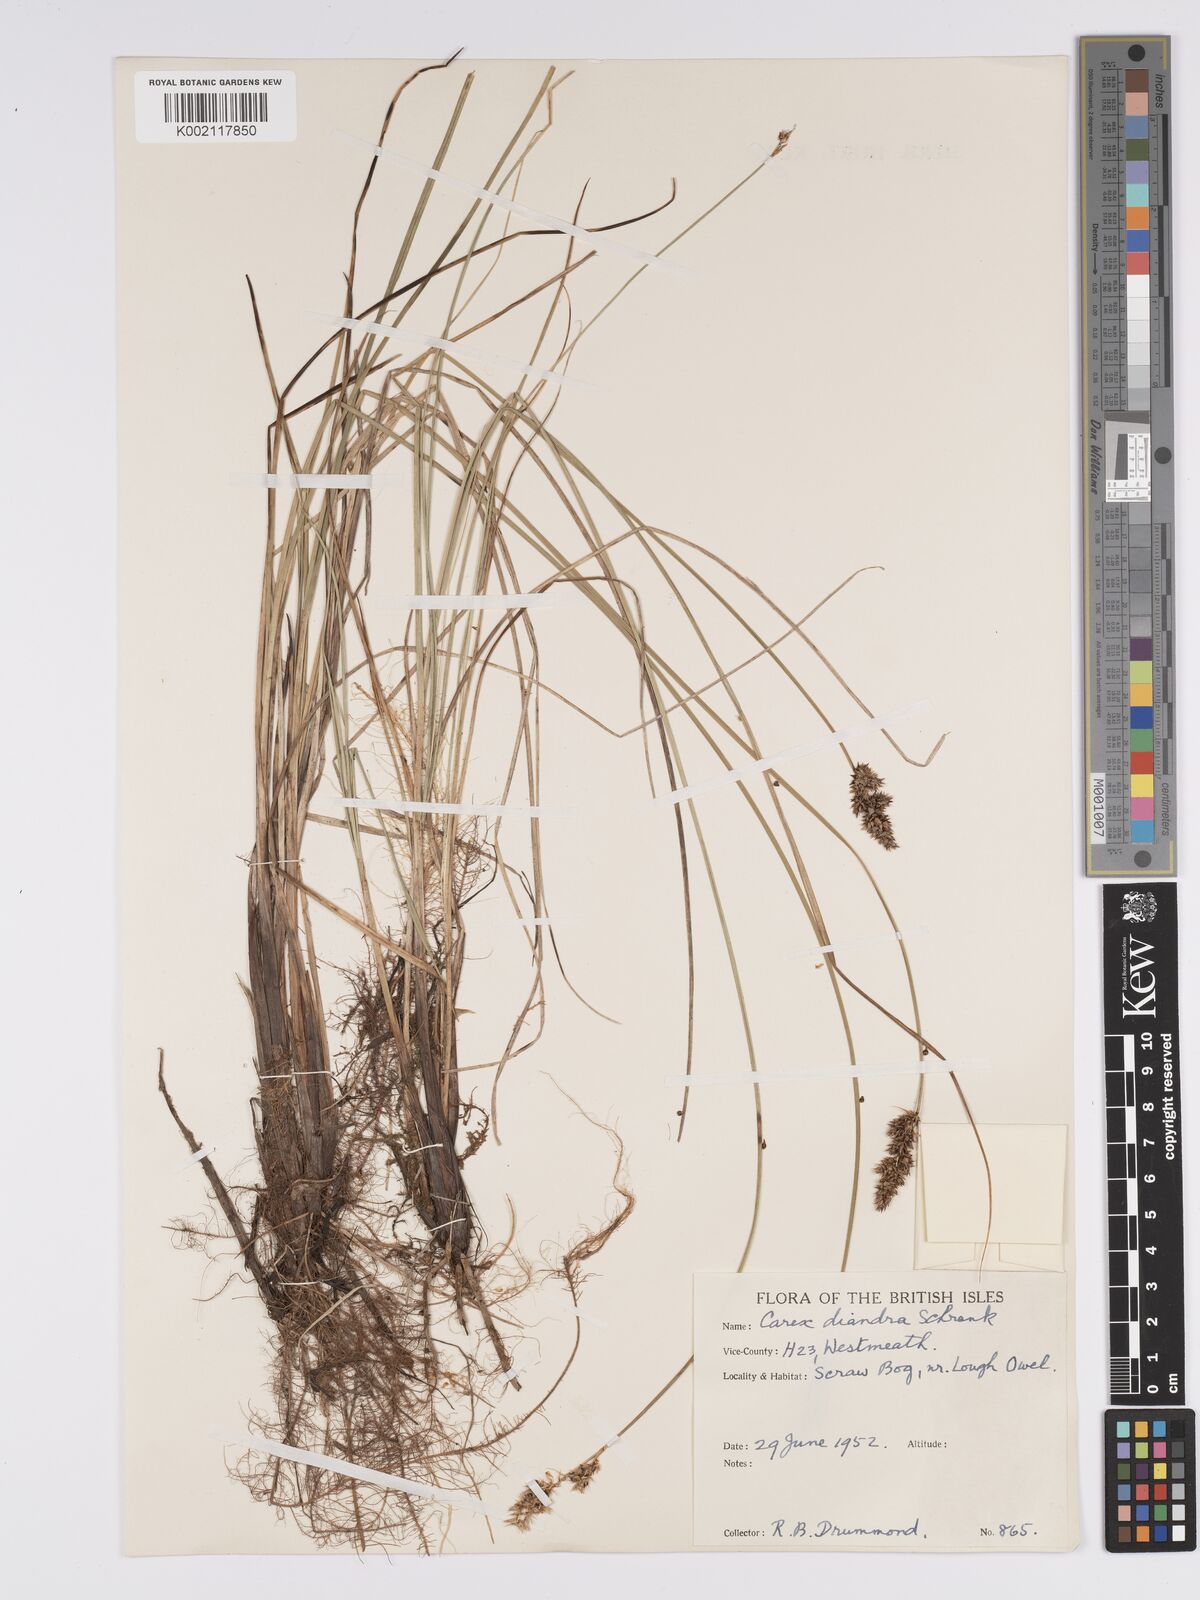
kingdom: Plantae
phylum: Tracheophyta
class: Liliopsida
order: Poales
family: Cyperaceae
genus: Carex
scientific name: Carex diandra
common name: Lesser tussock-sedge
